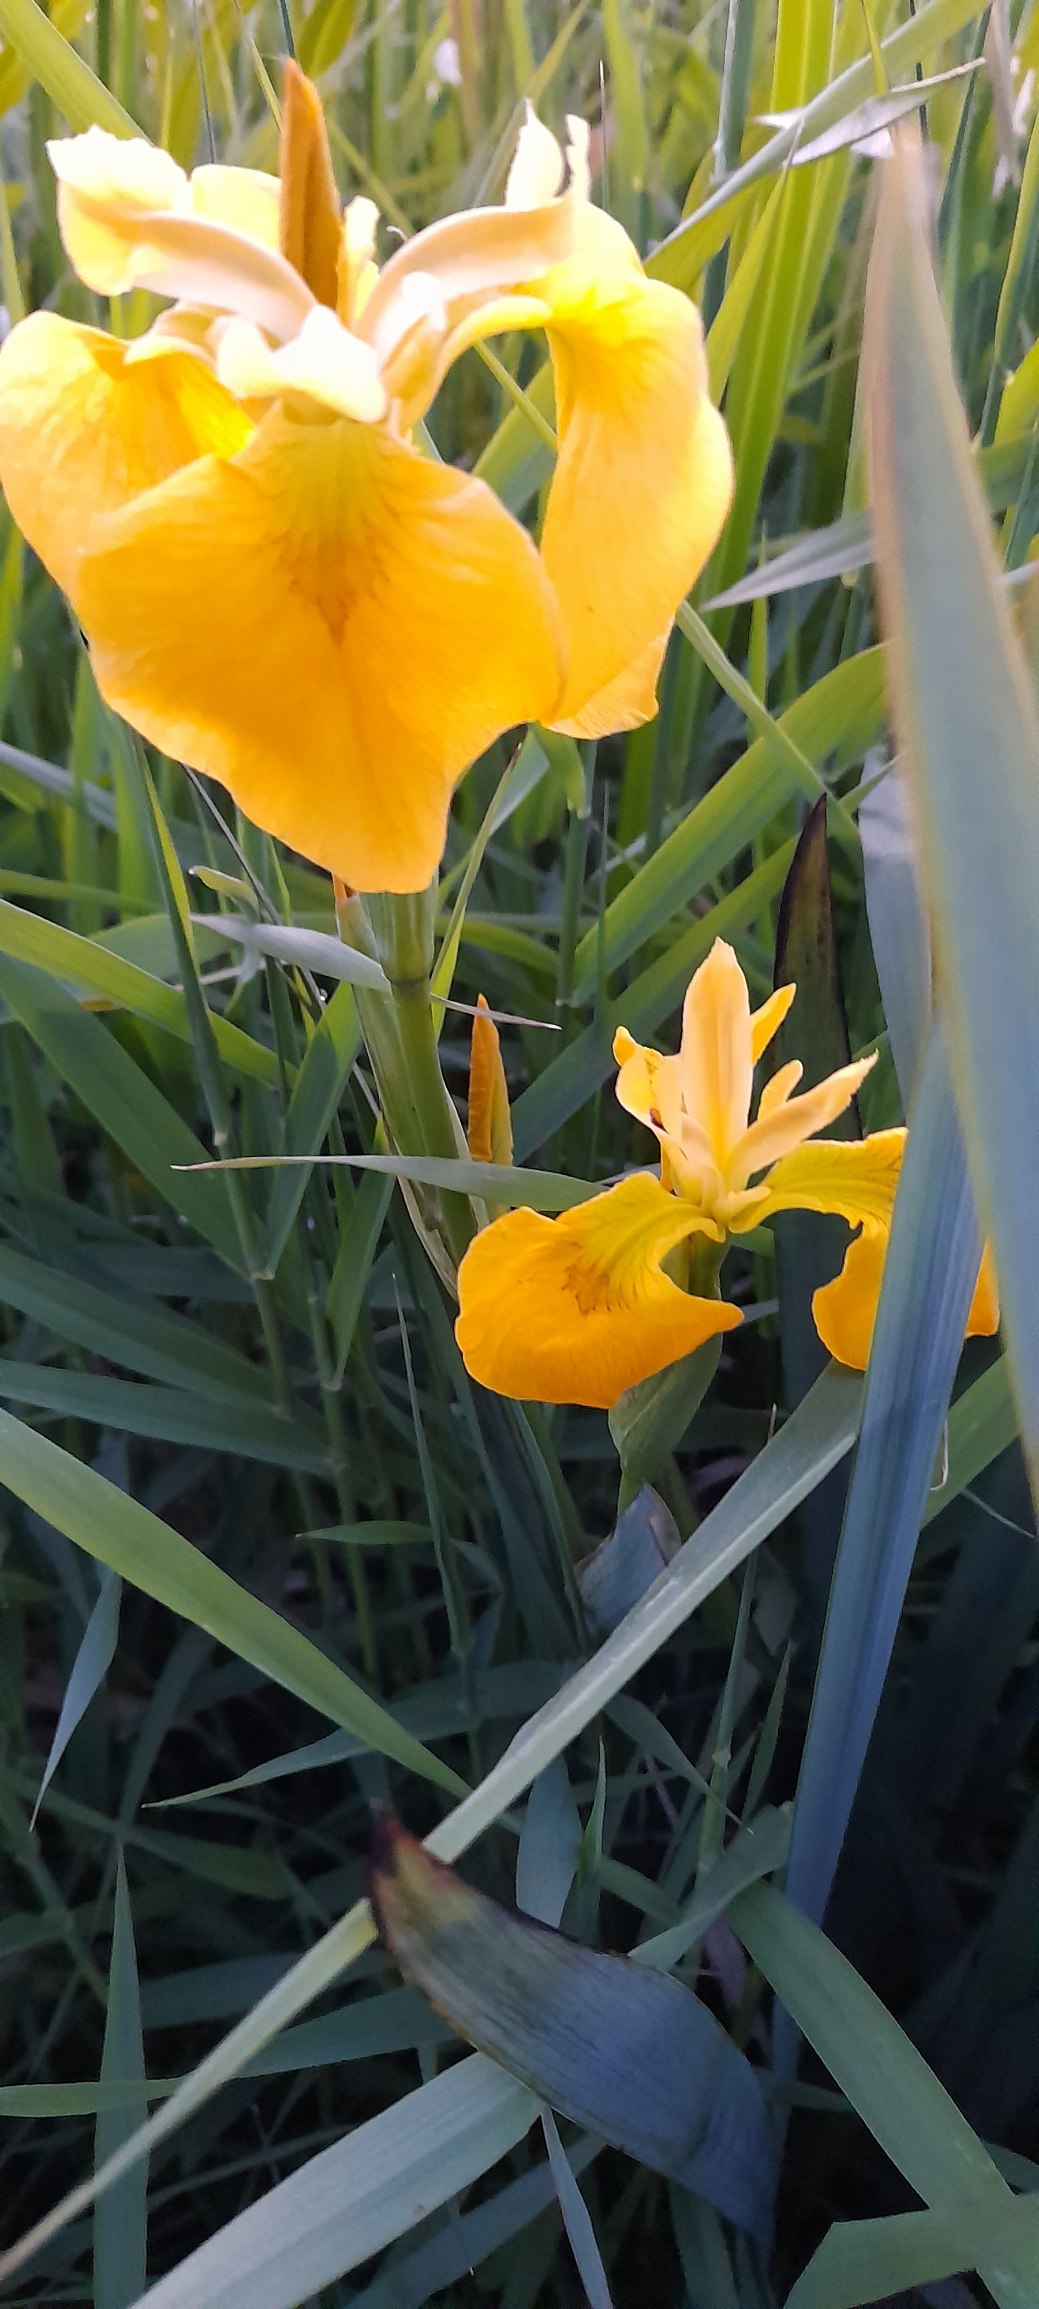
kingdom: Plantae
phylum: Tracheophyta
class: Liliopsida
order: Asparagales
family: Iridaceae
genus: Iris
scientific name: Iris pseudacorus
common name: Gul iris
